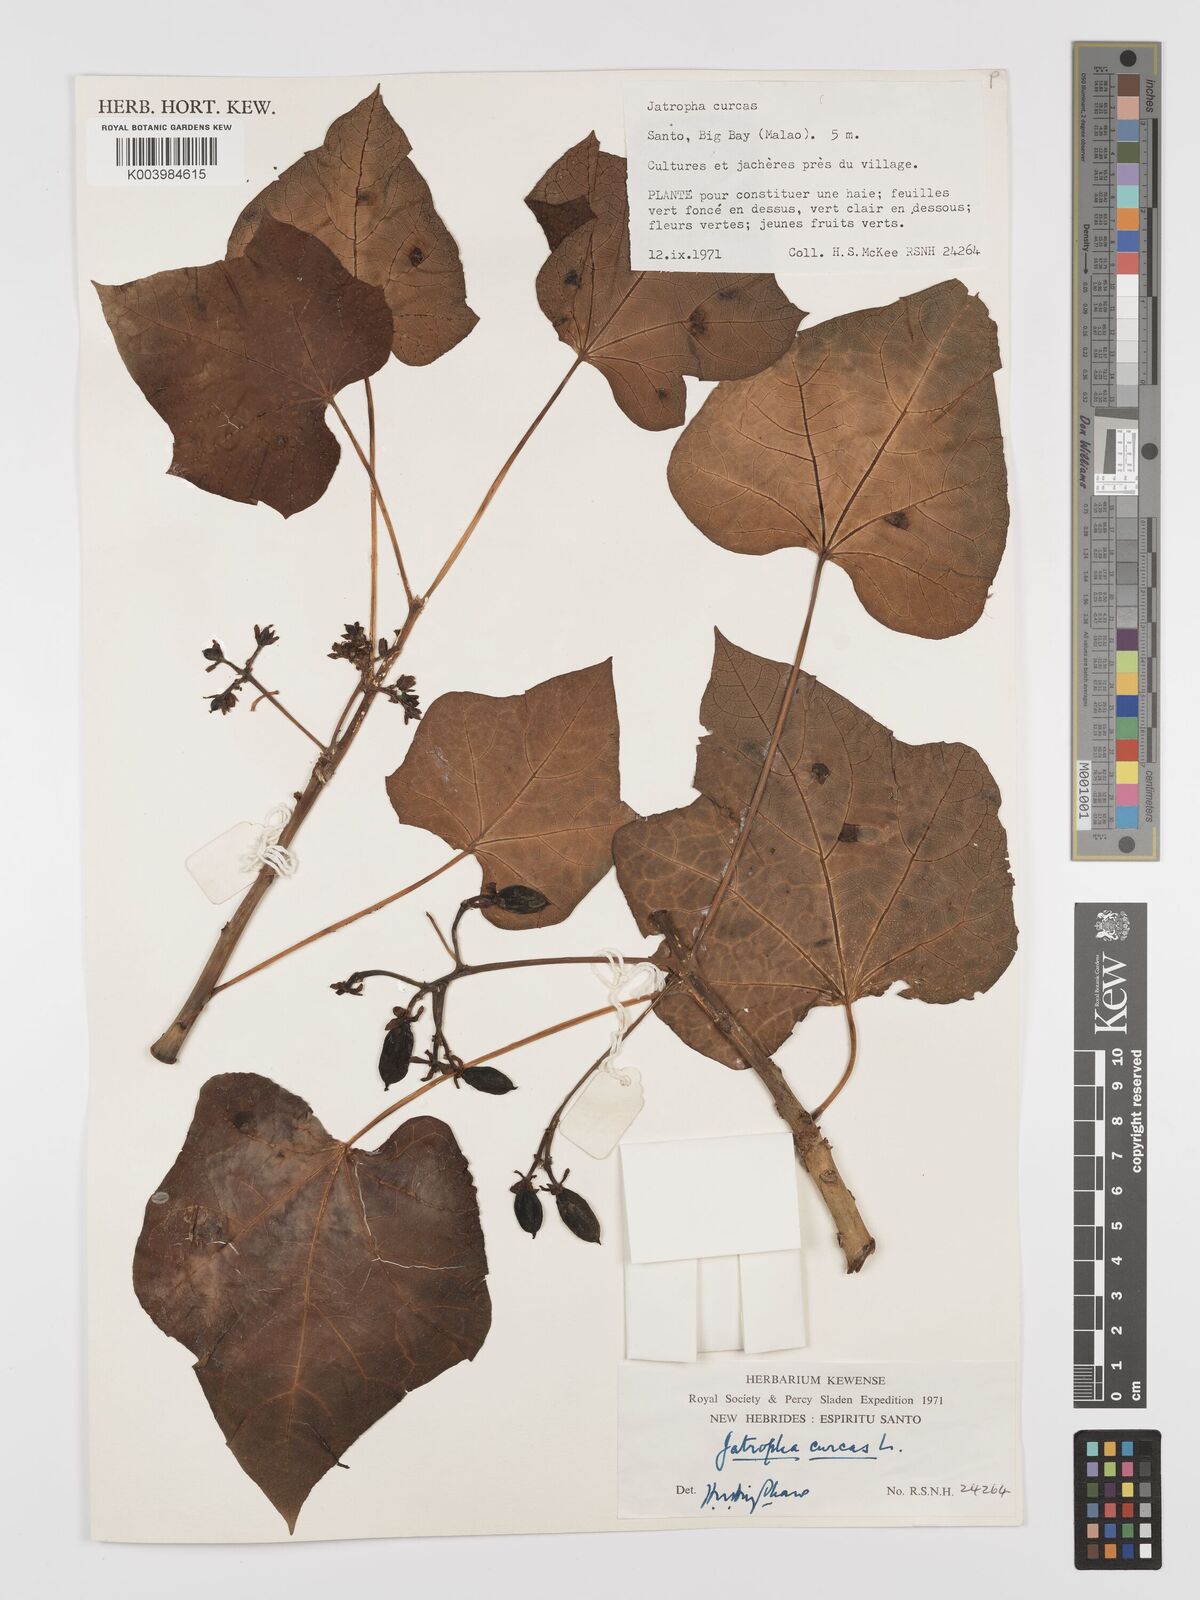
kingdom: Plantae
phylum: Tracheophyta
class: Magnoliopsida
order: Malpighiales
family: Euphorbiaceae
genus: Jatropha
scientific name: Jatropha curcas
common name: Barbados nut
